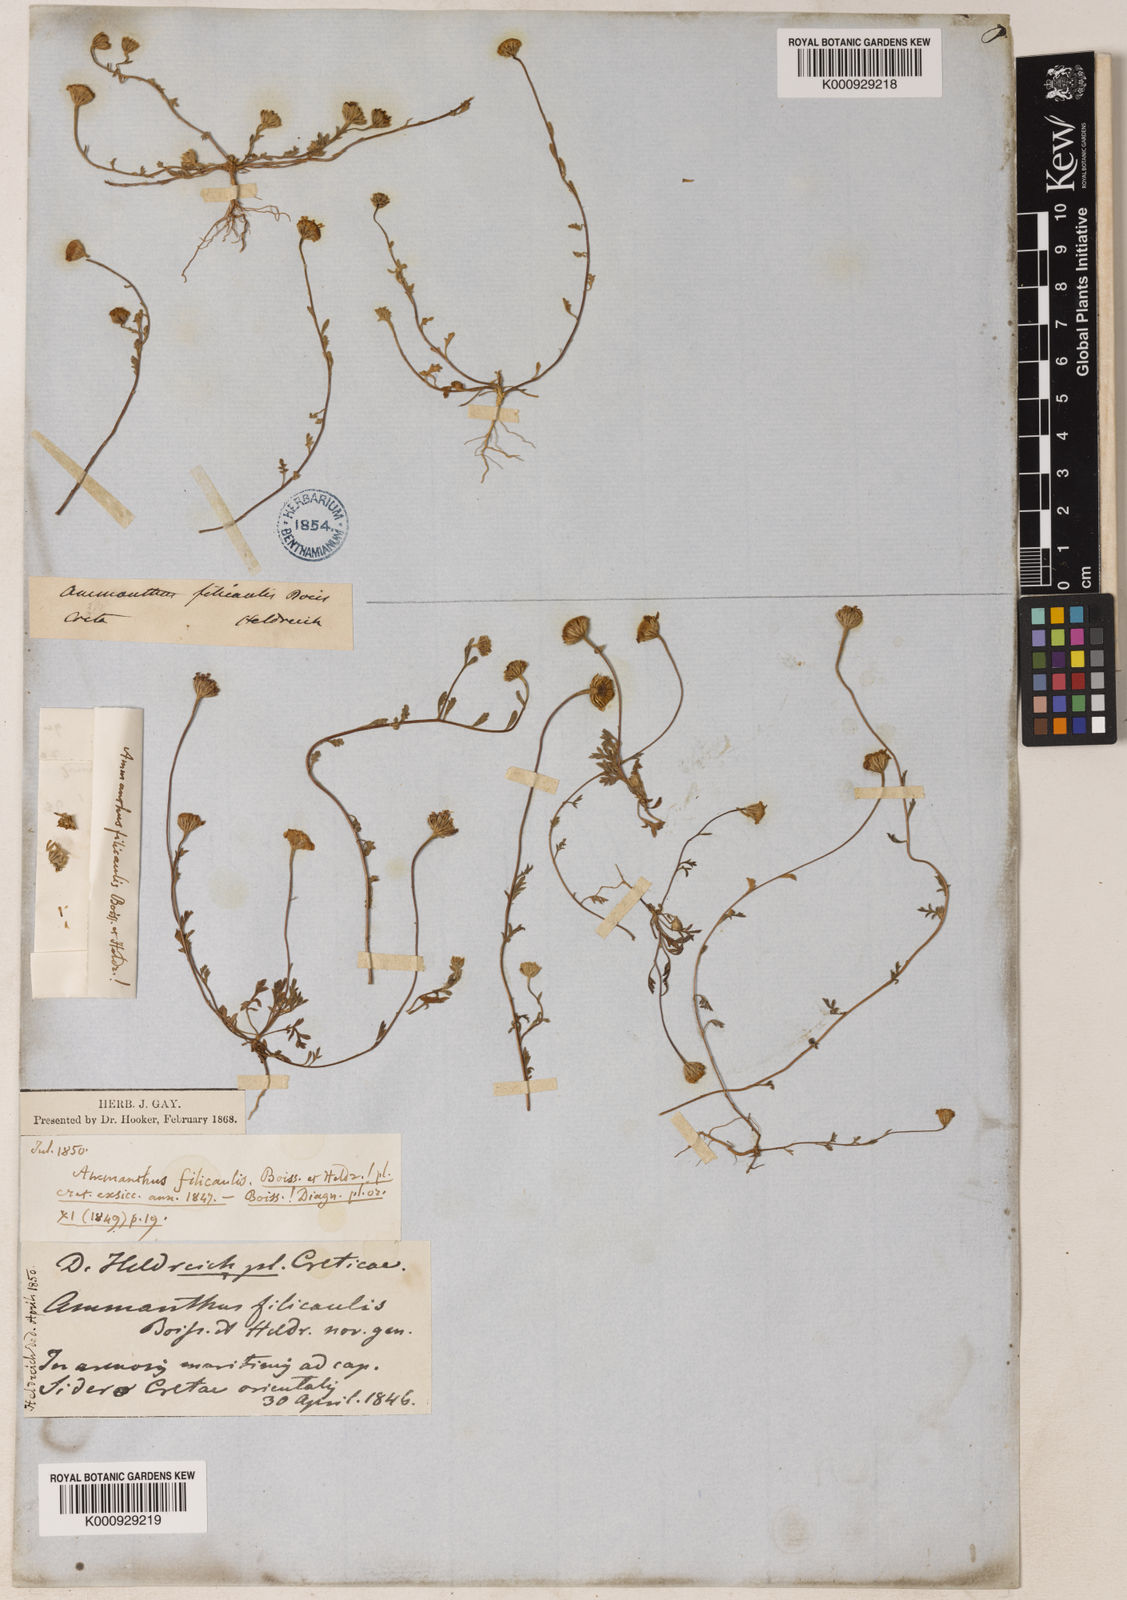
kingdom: Plantae
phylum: Tracheophyta
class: Magnoliopsida
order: Asterales
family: Asteraceae
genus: Anthemis
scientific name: Anthemis filicaulis
